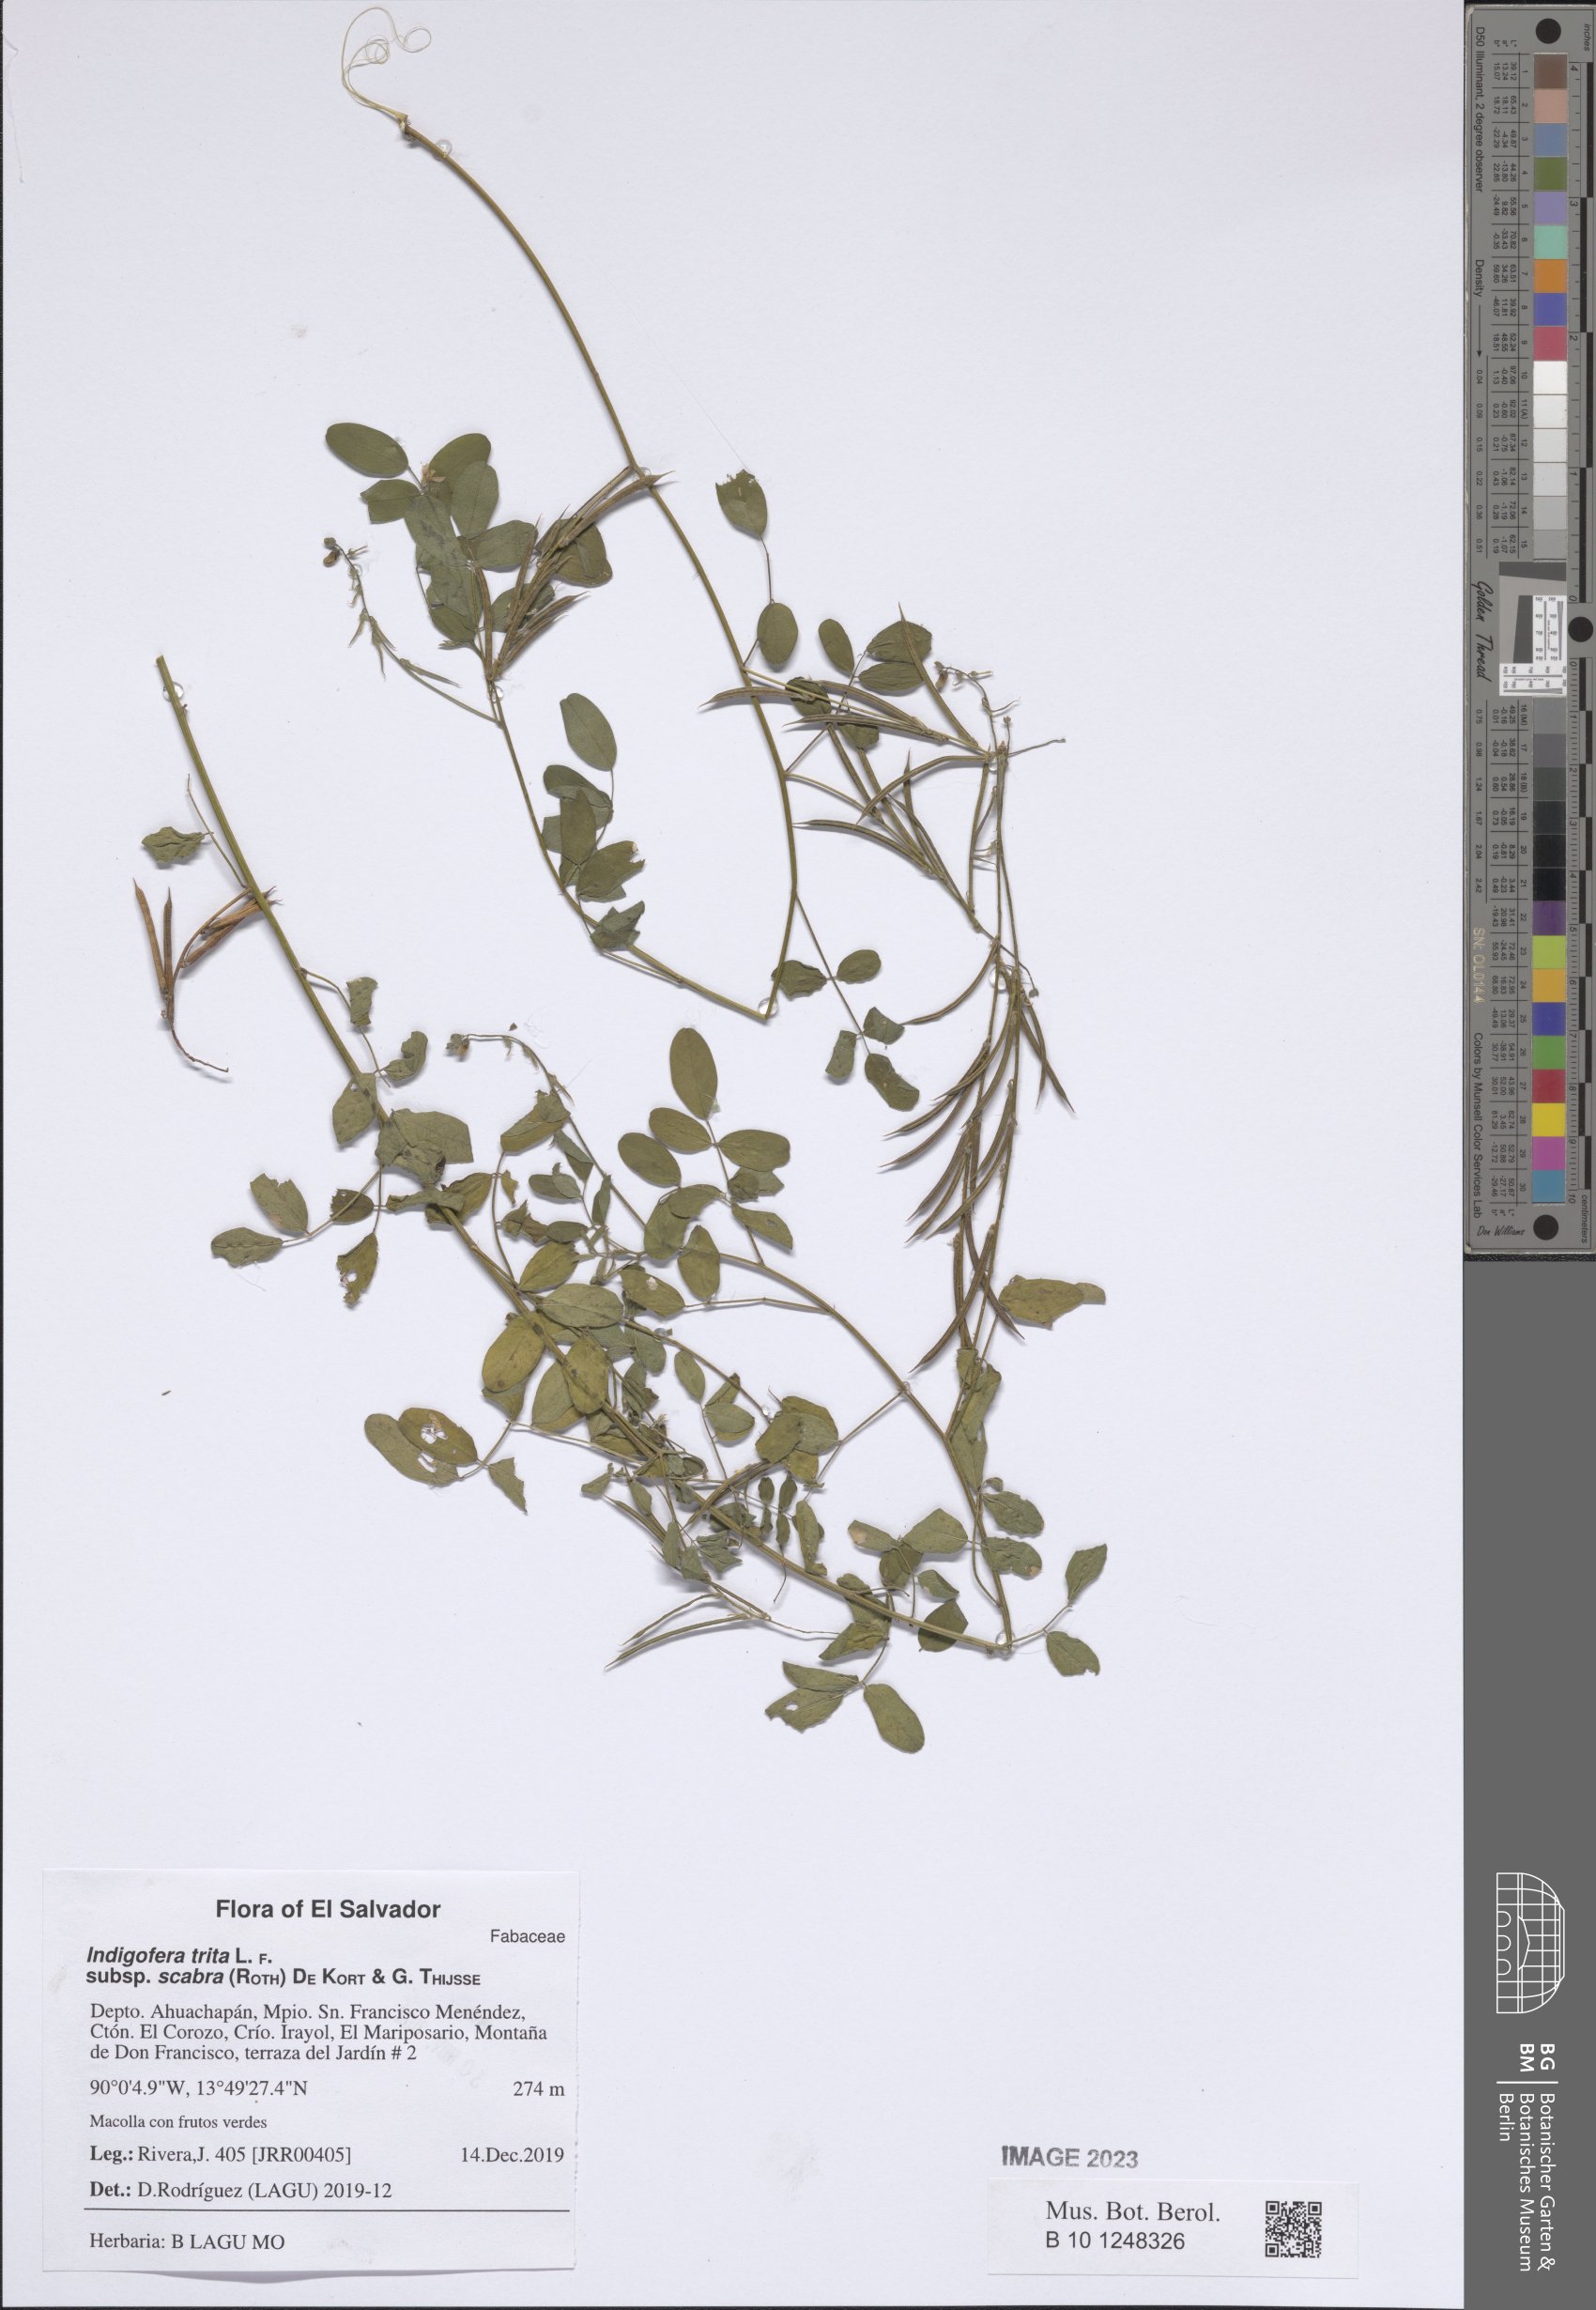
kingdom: Plantae
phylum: Tracheophyta
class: Magnoliopsida
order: Fabales
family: Fabaceae
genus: Indigofera
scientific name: Indigofera subulata
